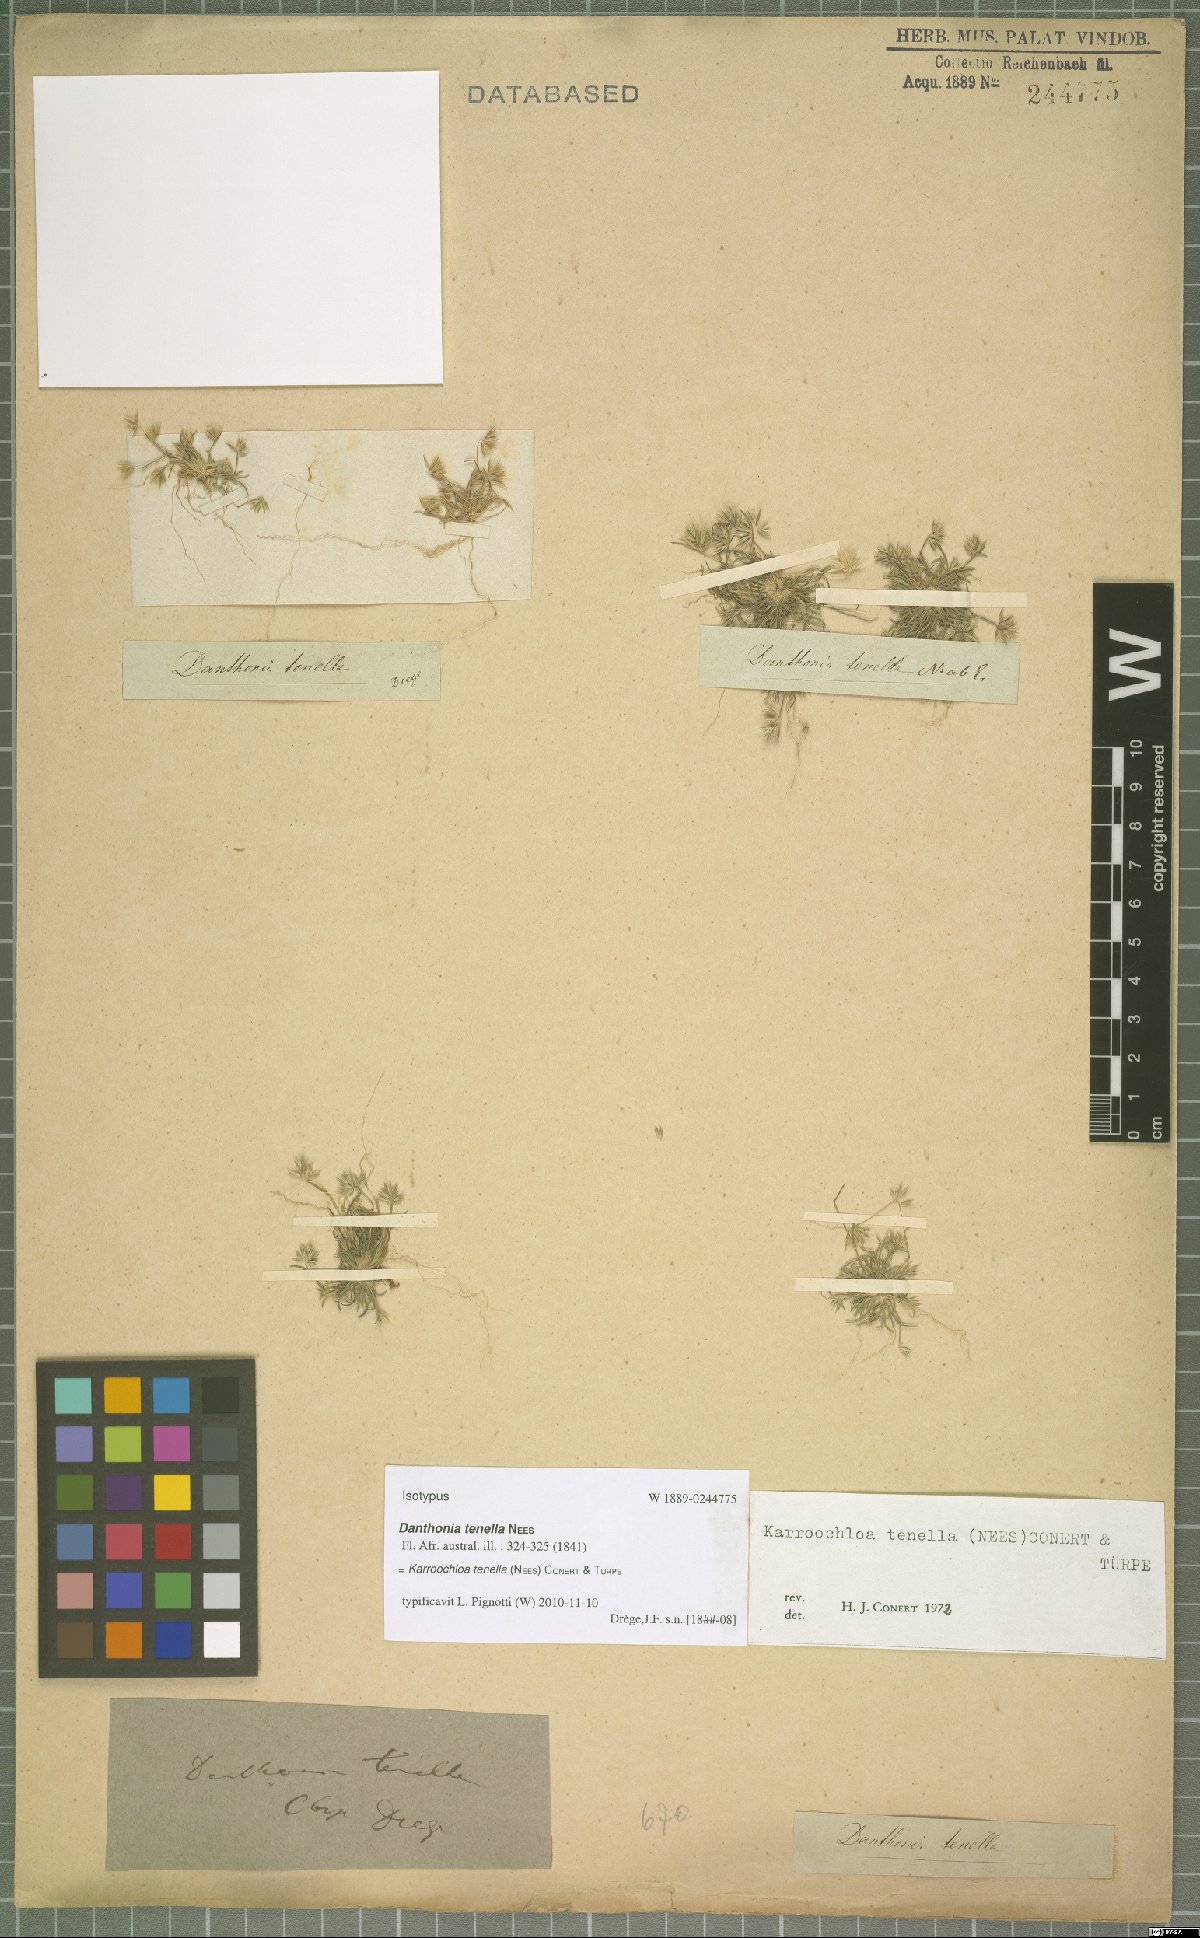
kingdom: Plantae
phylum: Tracheophyta
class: Liliopsida
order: Poales
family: Poaceae
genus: Tribolium
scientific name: Tribolium tenellum
